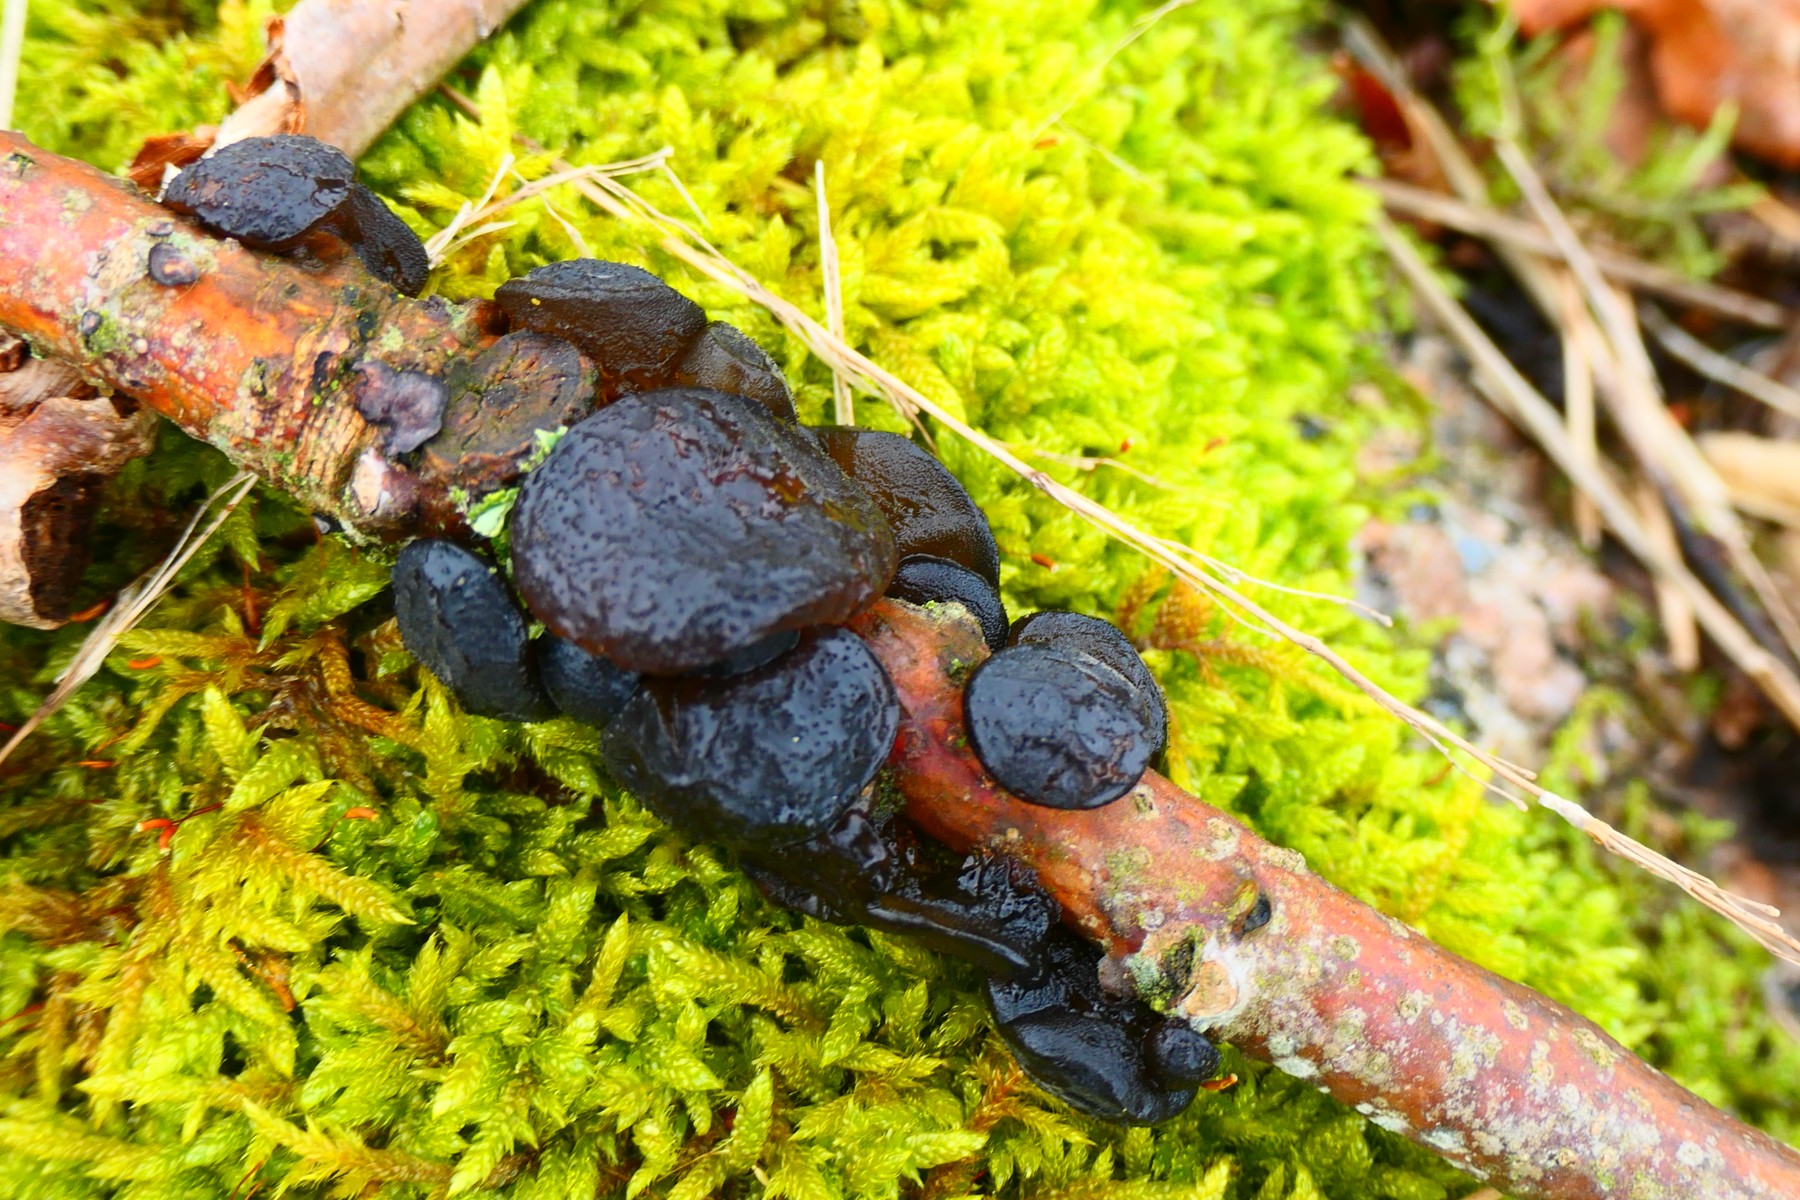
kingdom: Fungi
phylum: Basidiomycota
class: Agaricomycetes
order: Auriculariales
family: Auriculariaceae
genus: Exidia
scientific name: Exidia glandulosa
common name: ege-bævretop
